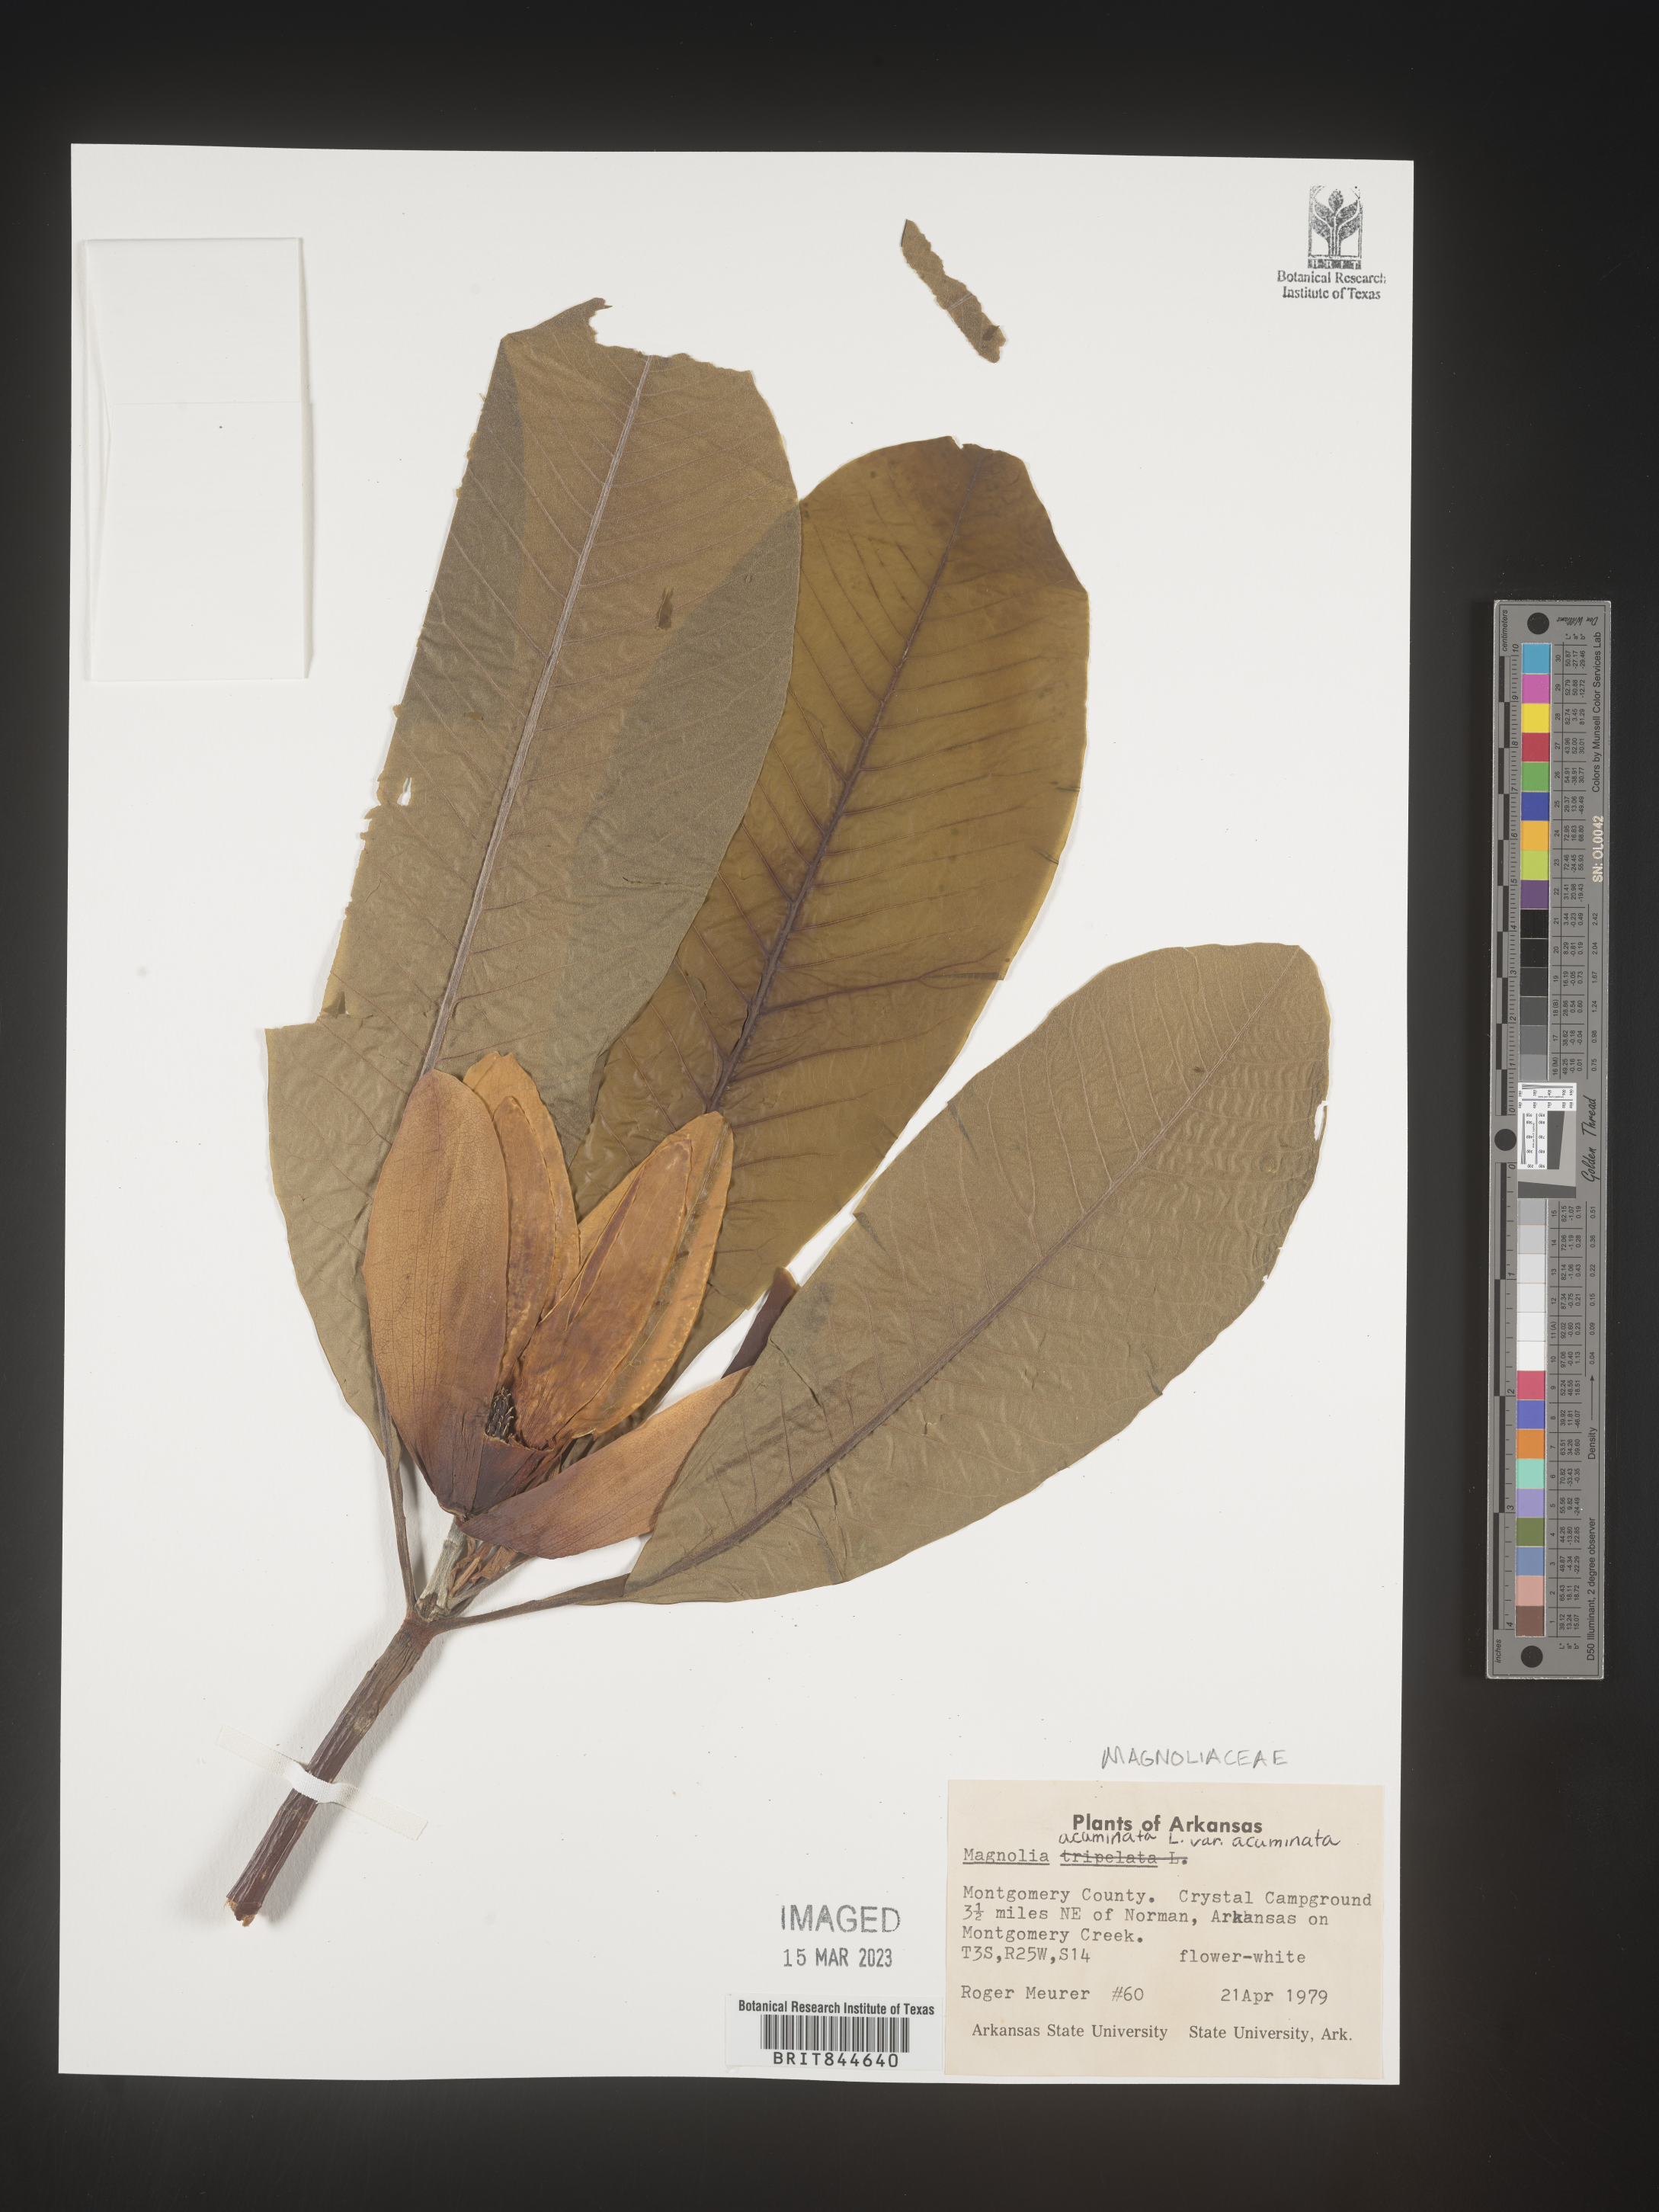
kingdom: Plantae
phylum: Tracheophyta
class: Magnoliopsida
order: Magnoliales
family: Magnoliaceae
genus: Magnolia
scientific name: Magnolia tripetala
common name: Umbrella magnolia
